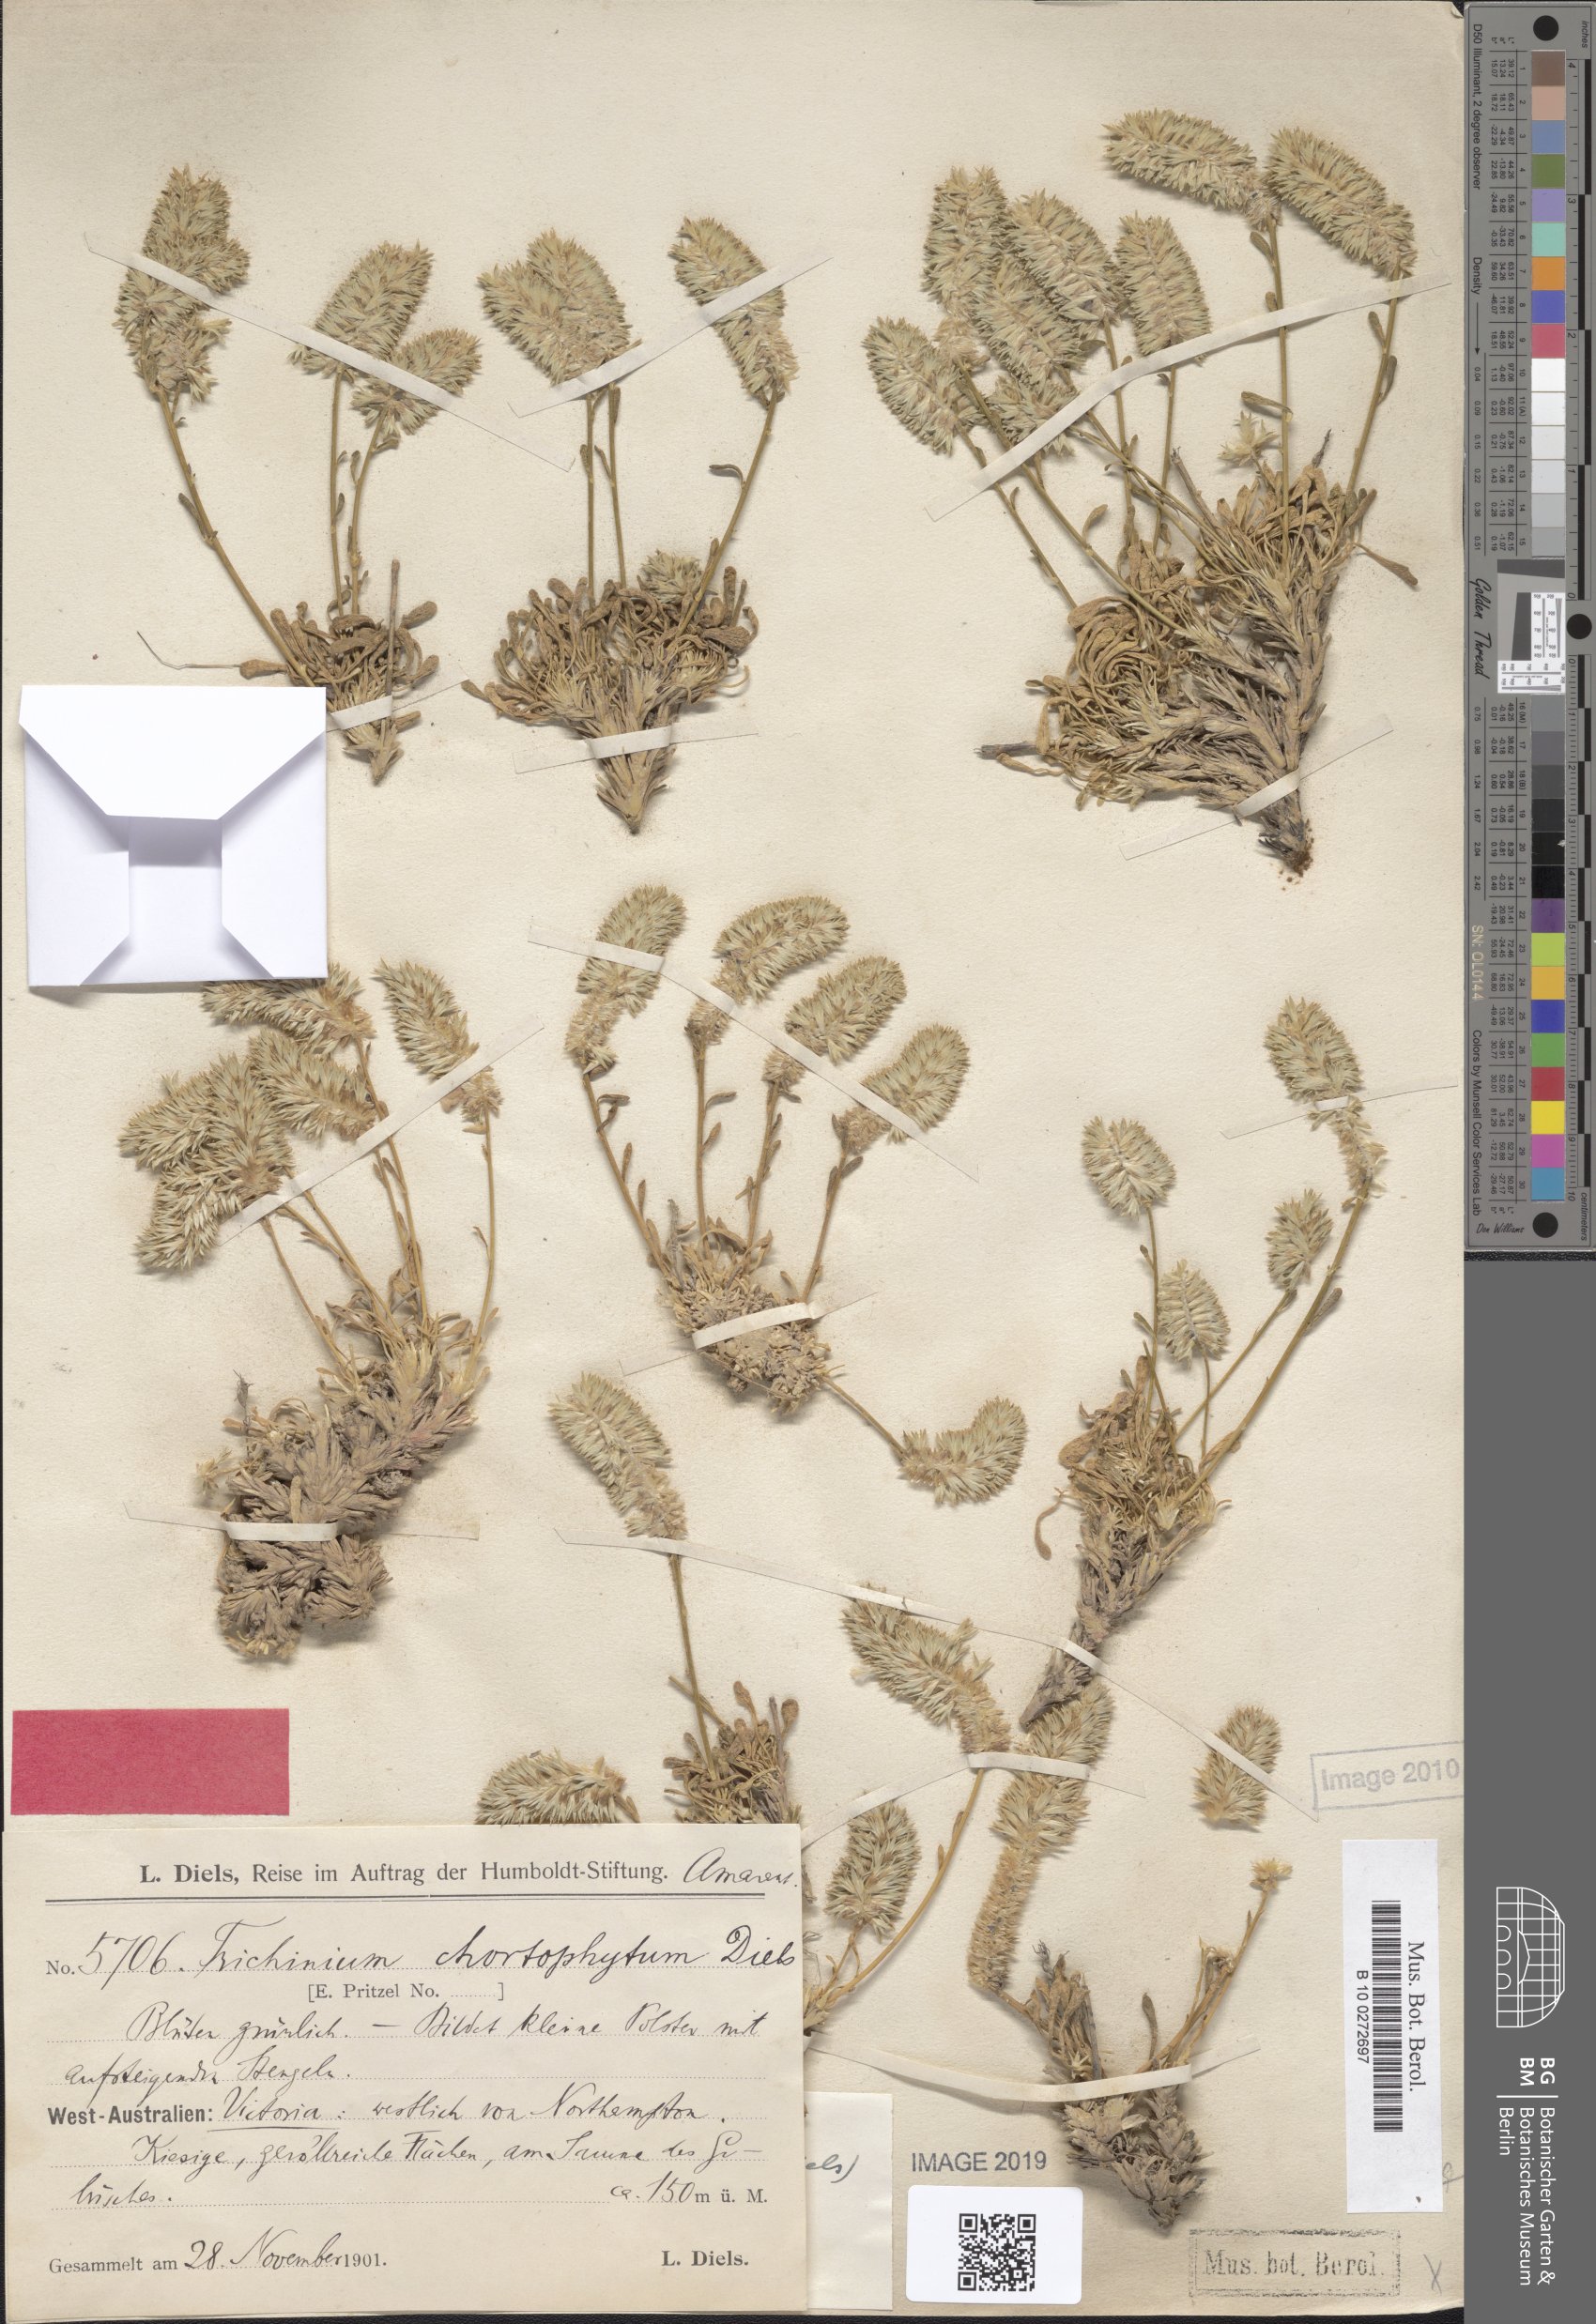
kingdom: Plantae
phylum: Tracheophyta
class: Magnoliopsida
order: Caryophyllales
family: Amaranthaceae
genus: Ptilotus
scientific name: Ptilotus chortophytum
